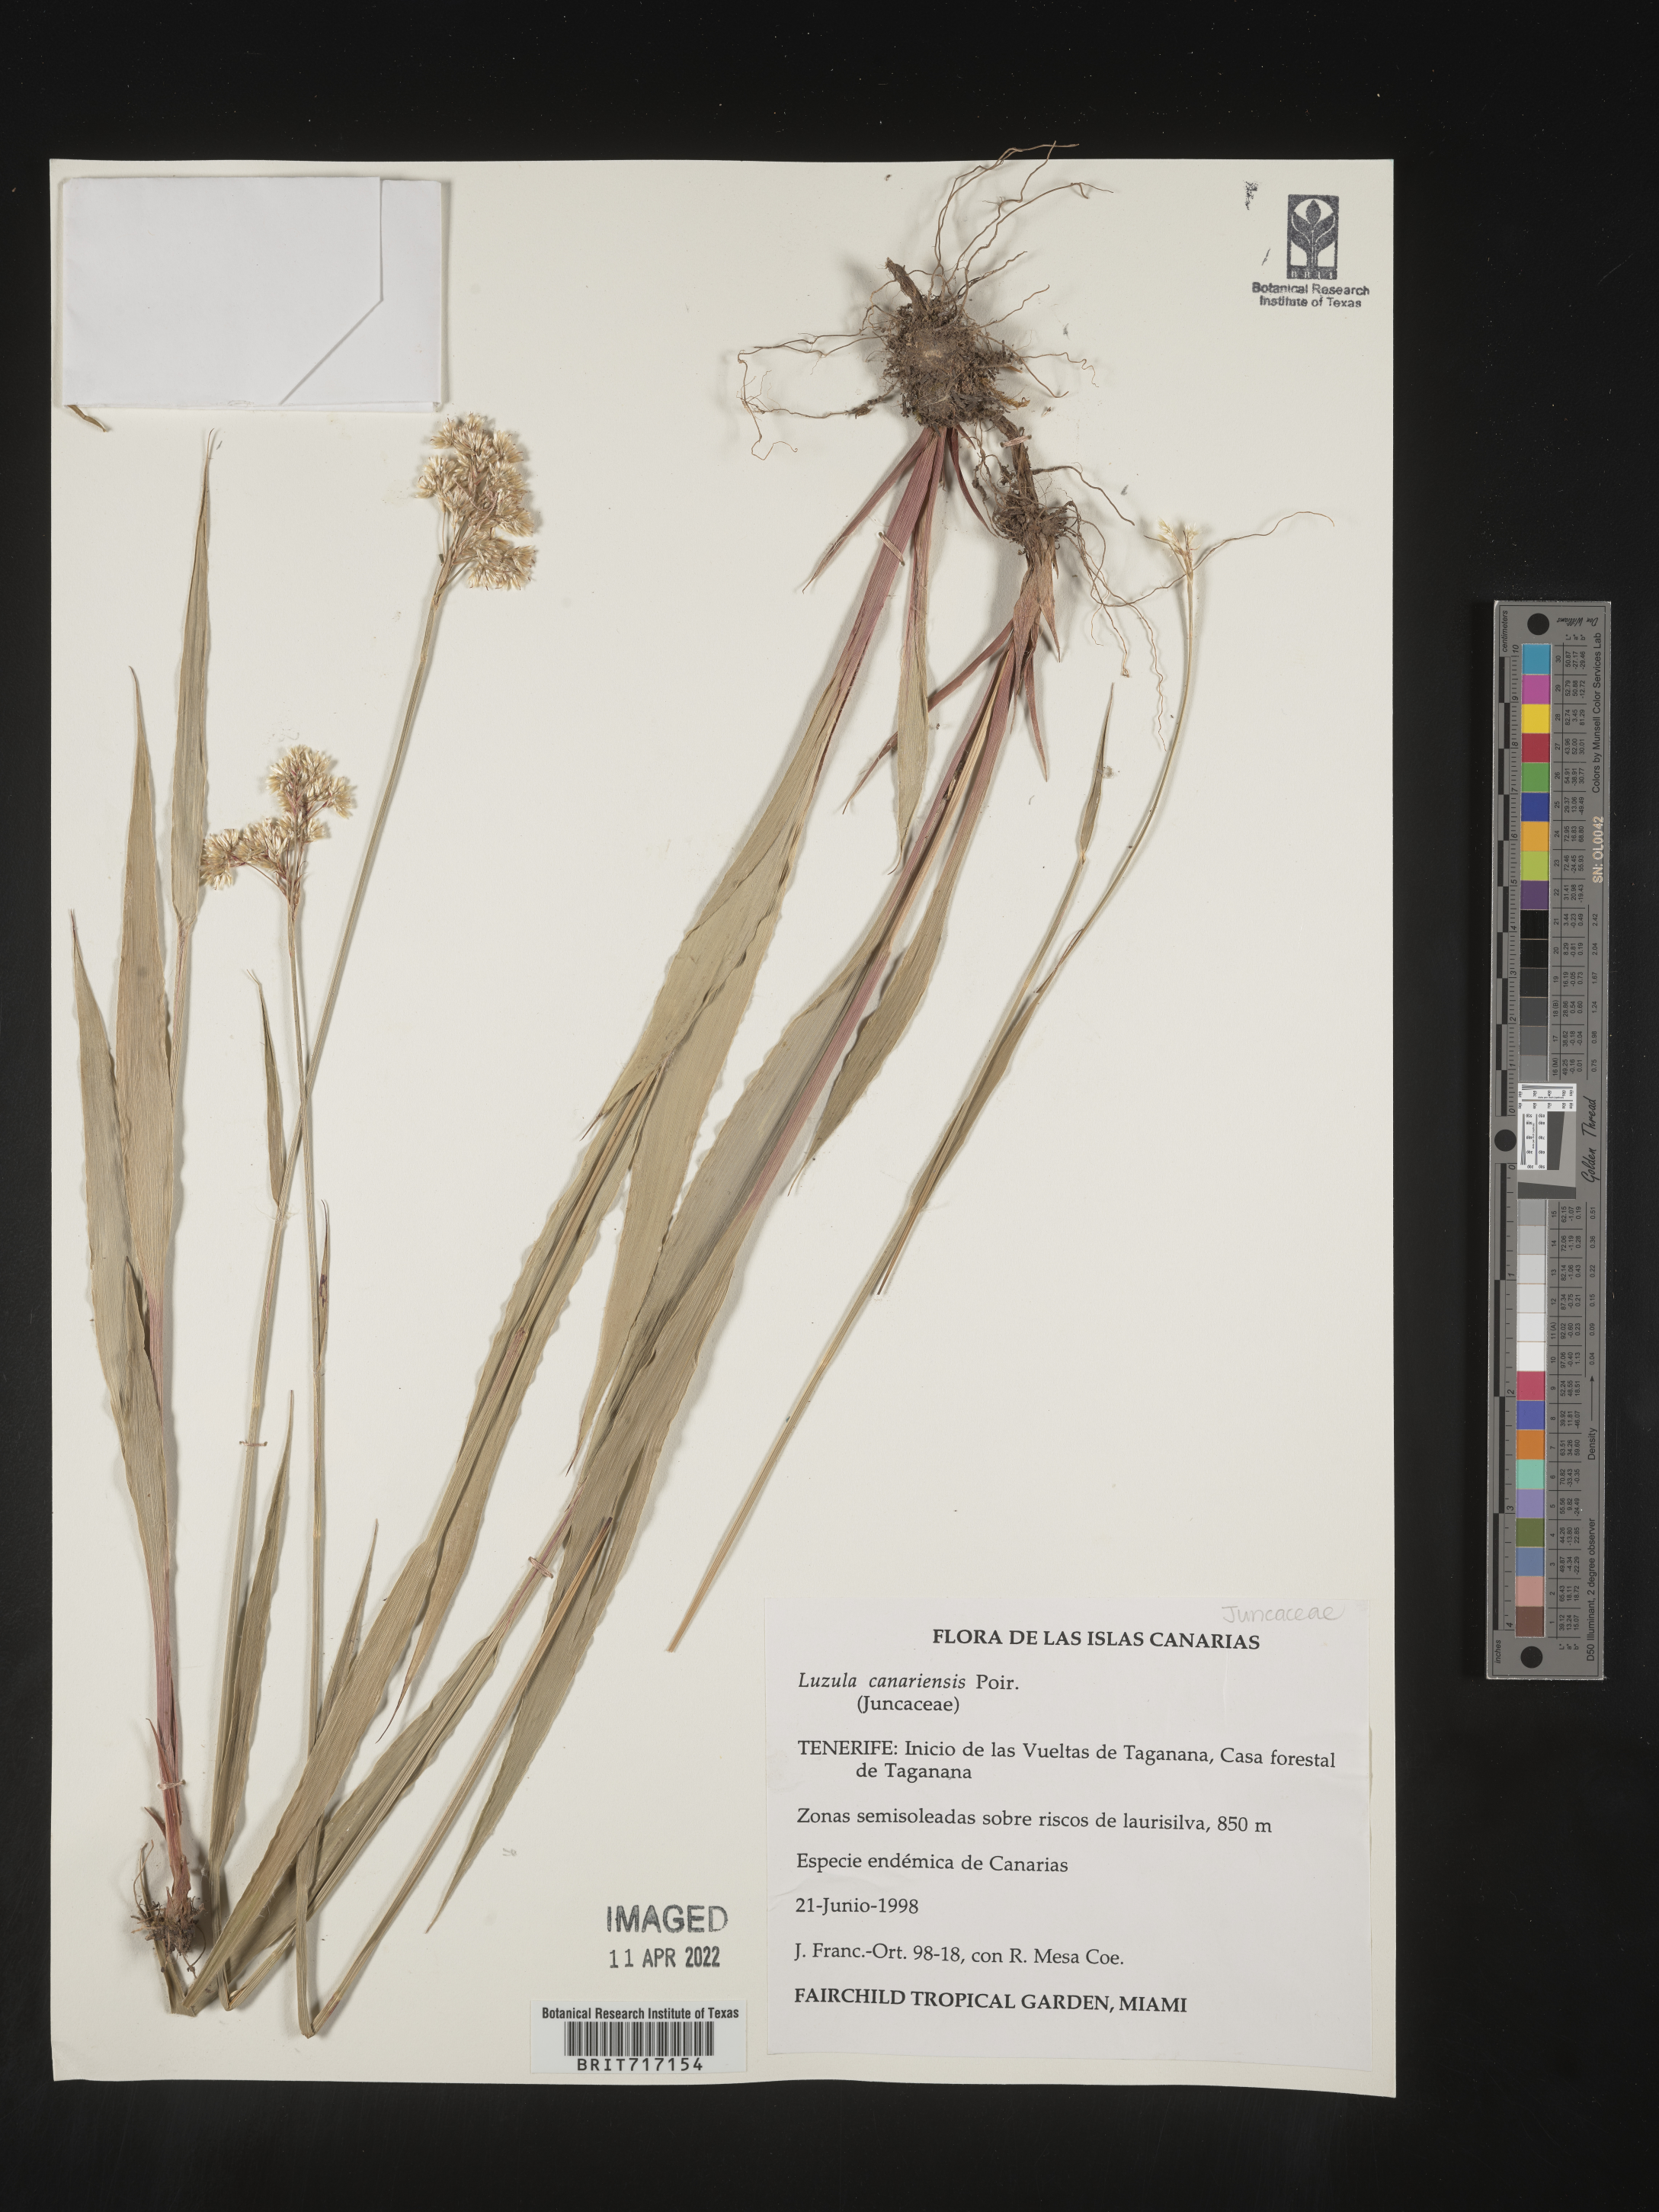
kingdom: Plantae
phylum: Tracheophyta
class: Liliopsida
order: Poales
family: Juncaceae
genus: Luzula
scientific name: Luzula
